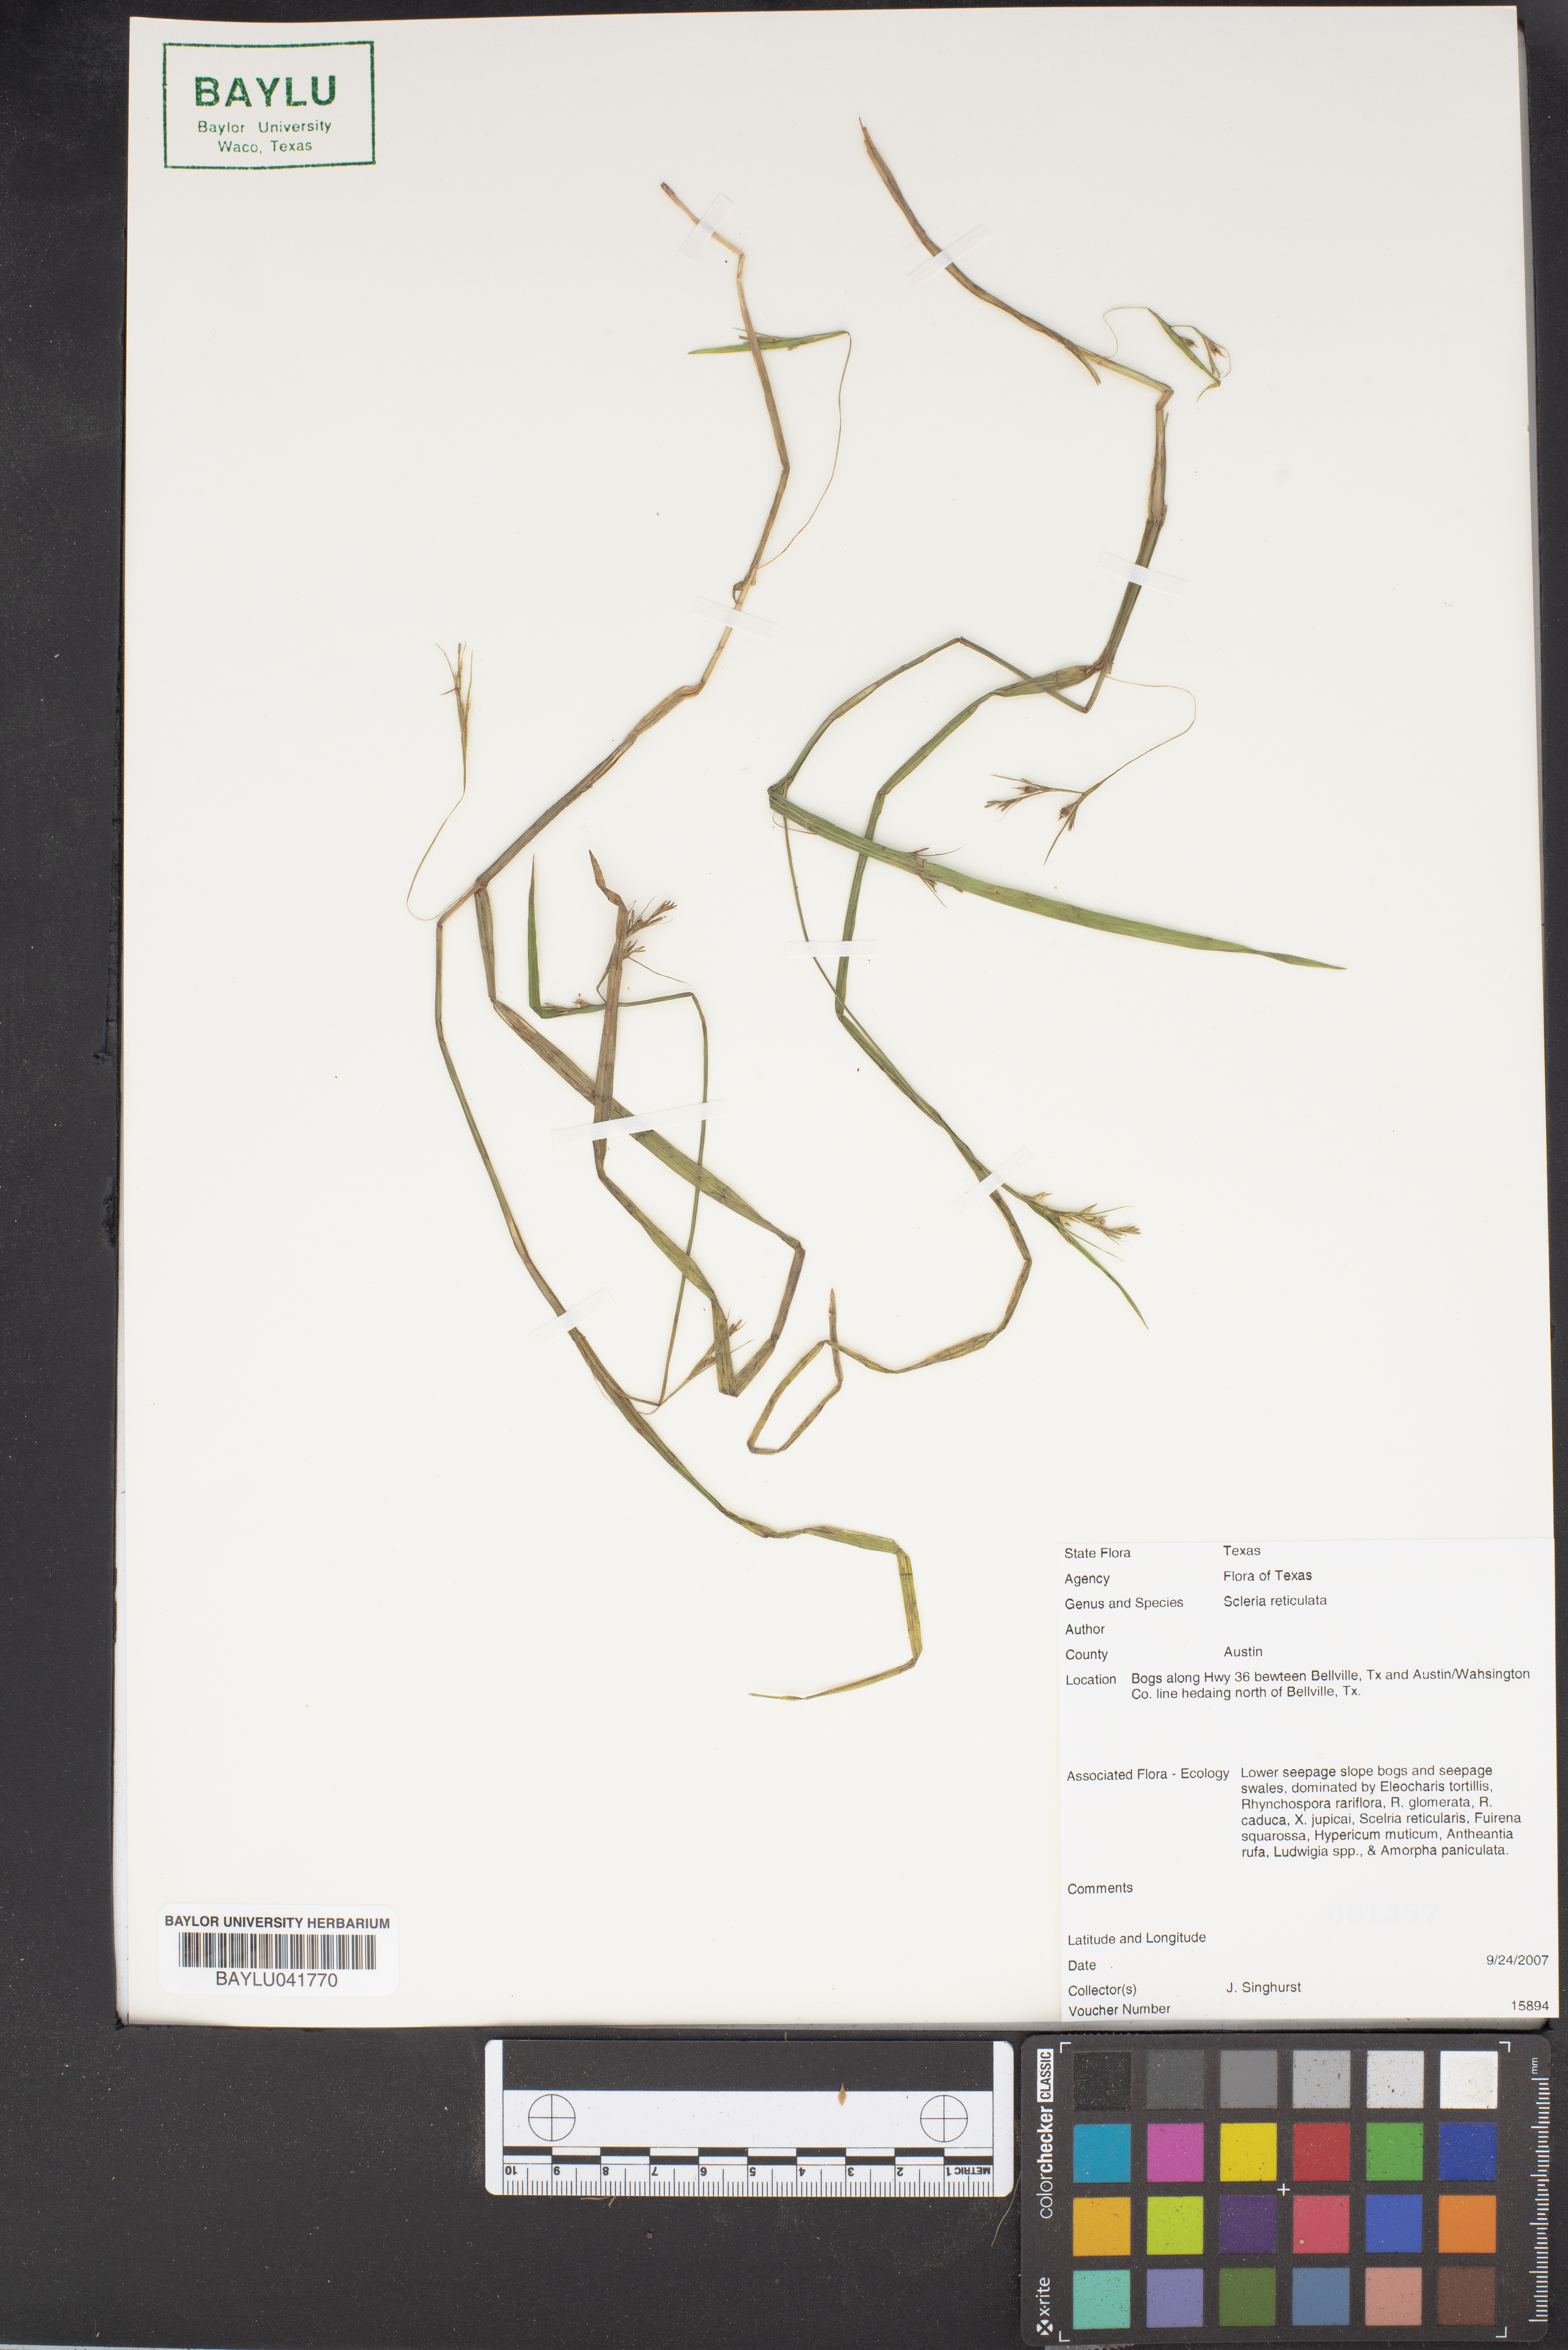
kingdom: Plantae
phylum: Tracheophyta
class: Liliopsida
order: Poales
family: Cyperaceae
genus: Diplacrum
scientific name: Diplacrum reticulatum
